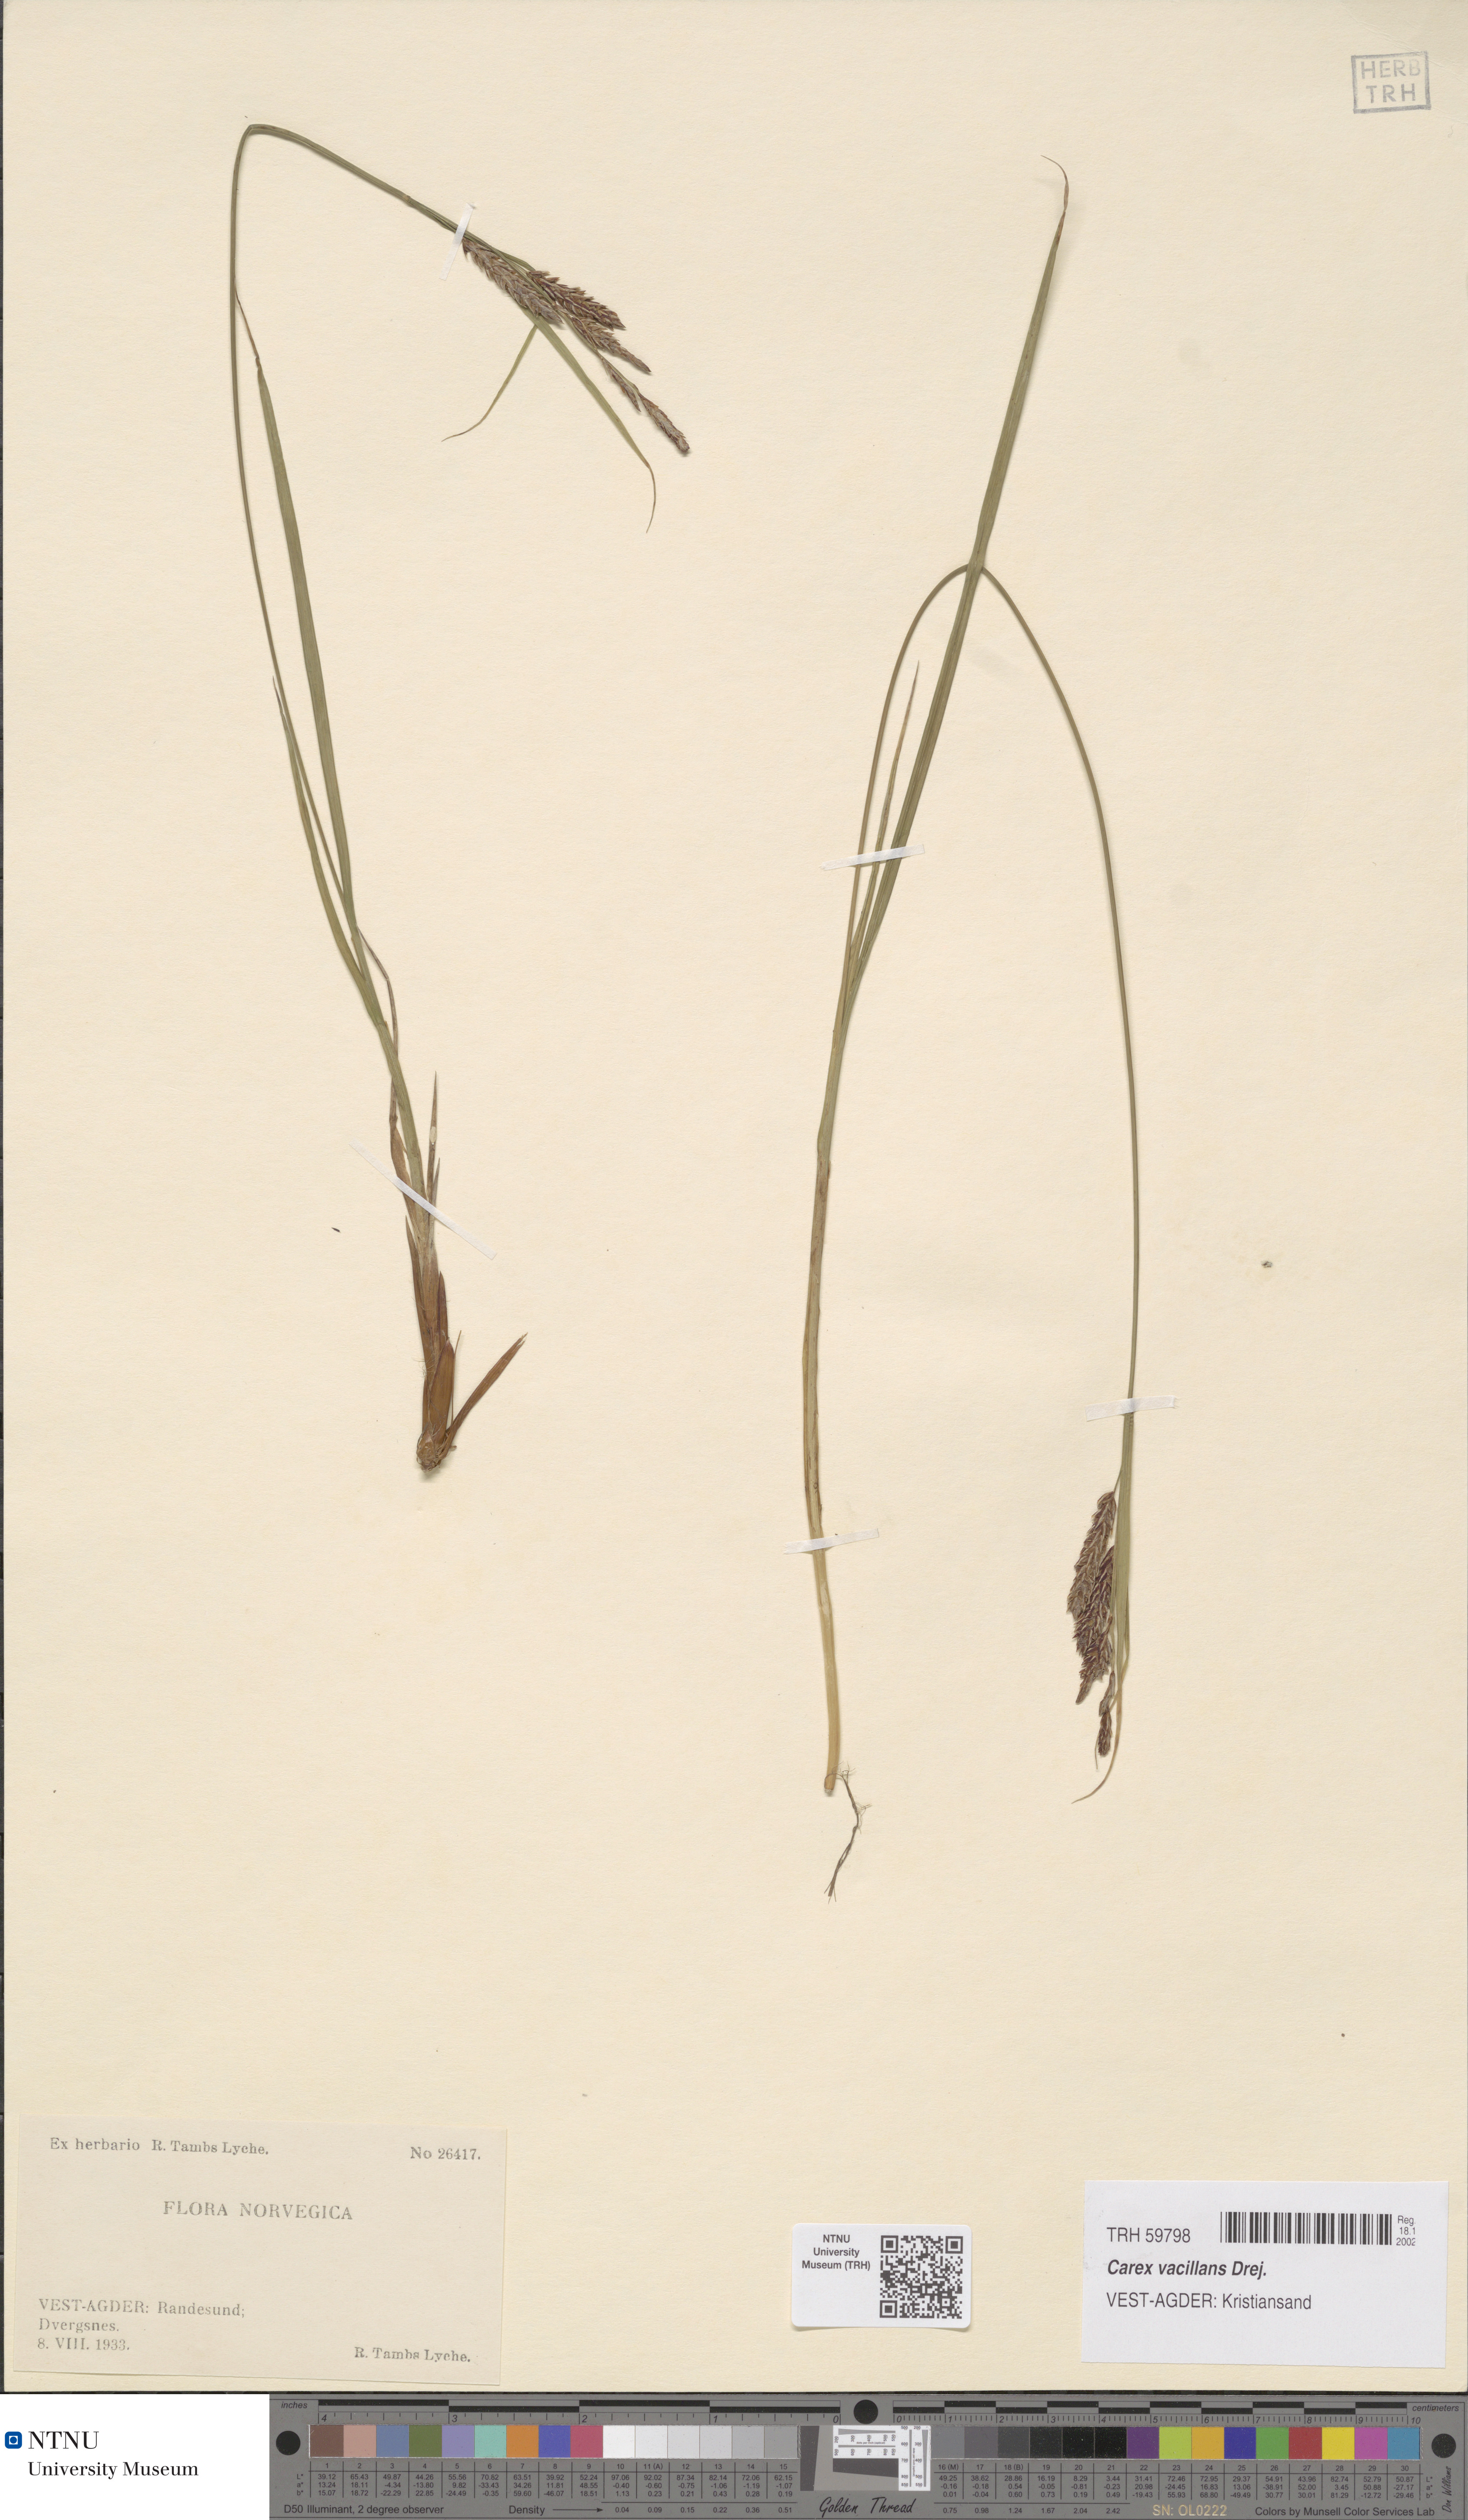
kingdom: Plantae
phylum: Tracheophyta
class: Liliopsida
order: Poales
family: Cyperaceae
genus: Carex
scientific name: Carex vacillans
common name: Sedge
